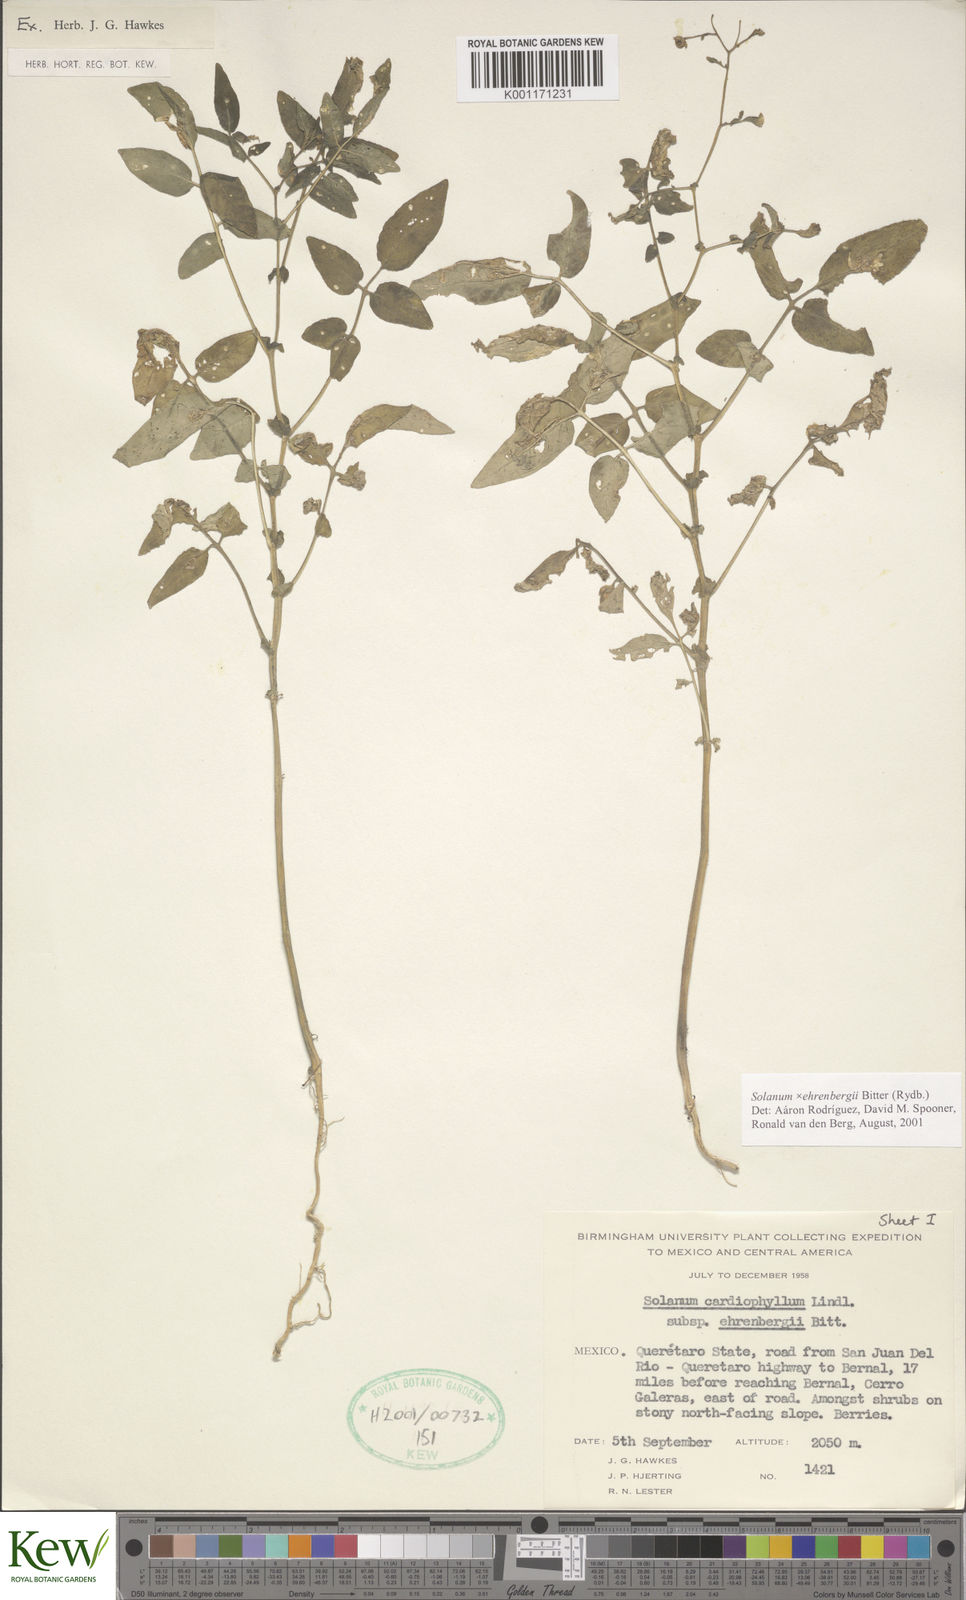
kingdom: Plantae
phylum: Tracheophyta
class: Magnoliopsida
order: Solanales
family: Solanaceae
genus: Solanum
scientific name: Solanum edinense
